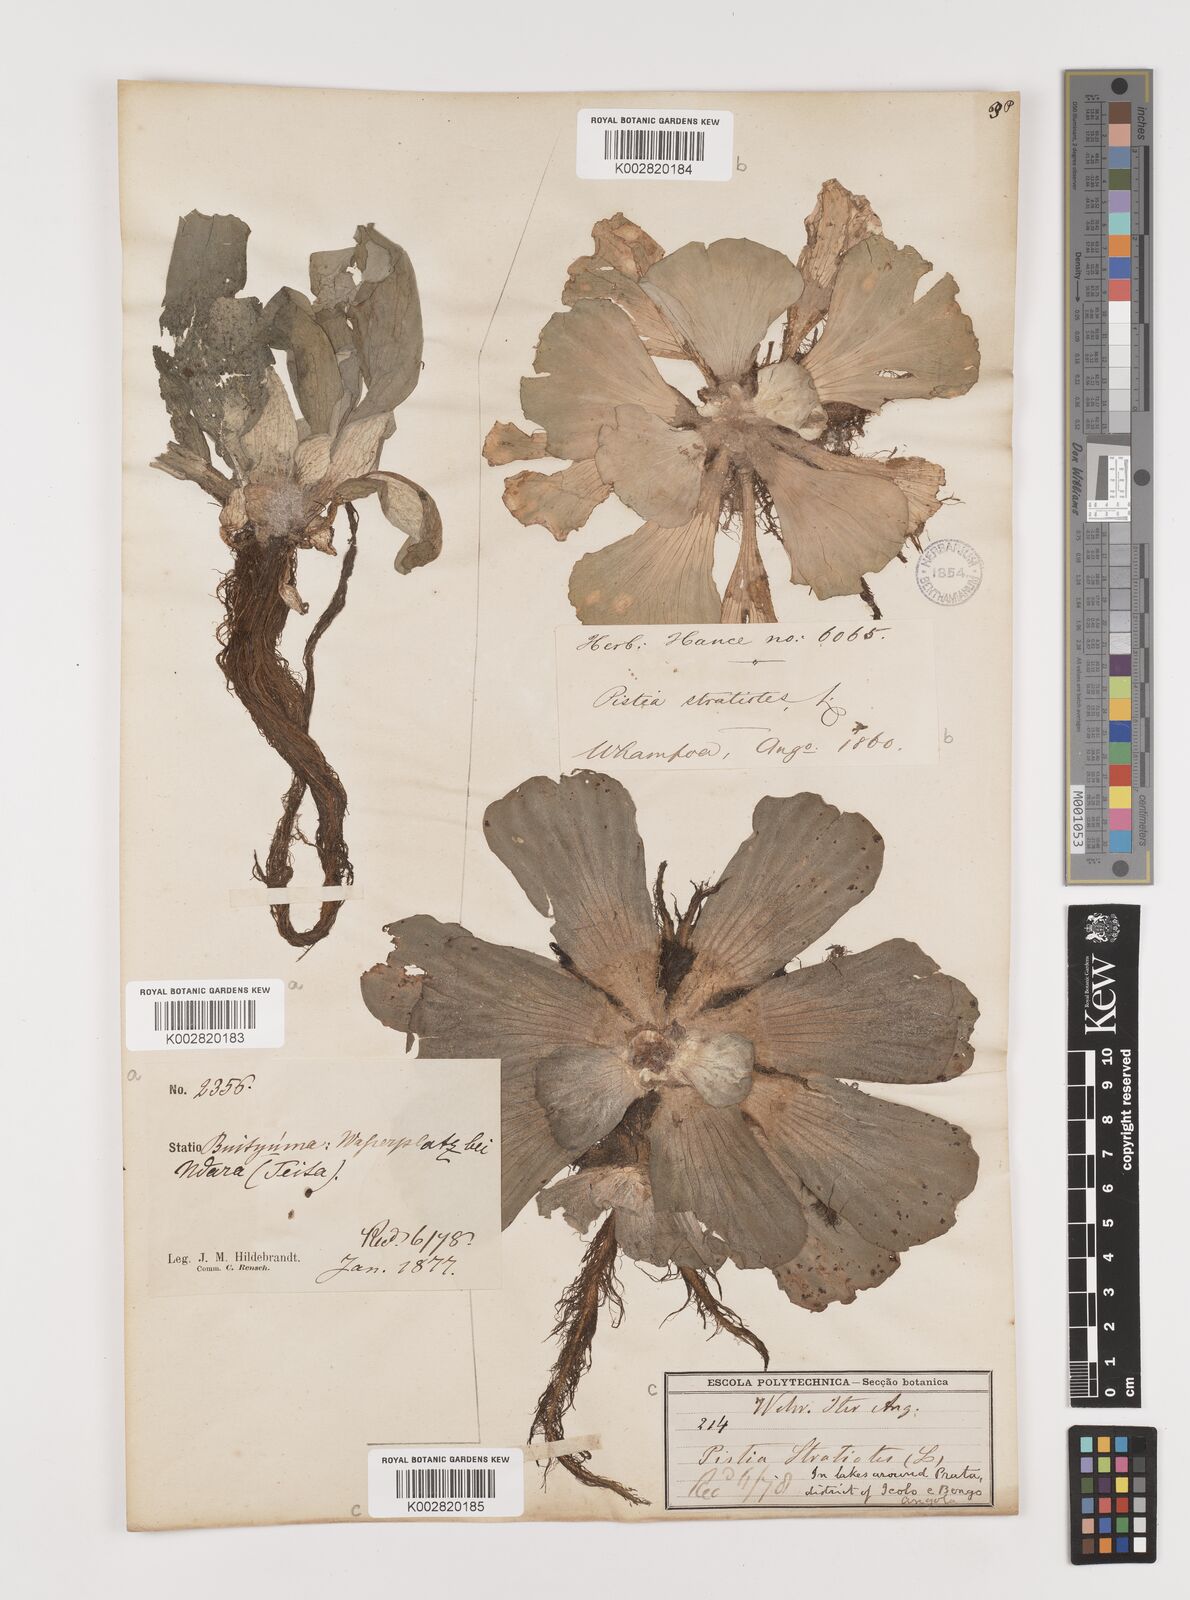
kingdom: Plantae
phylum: Tracheophyta
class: Liliopsida
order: Alismatales
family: Araceae
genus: Pistia
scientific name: Pistia stratiotes
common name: Water lettuce
